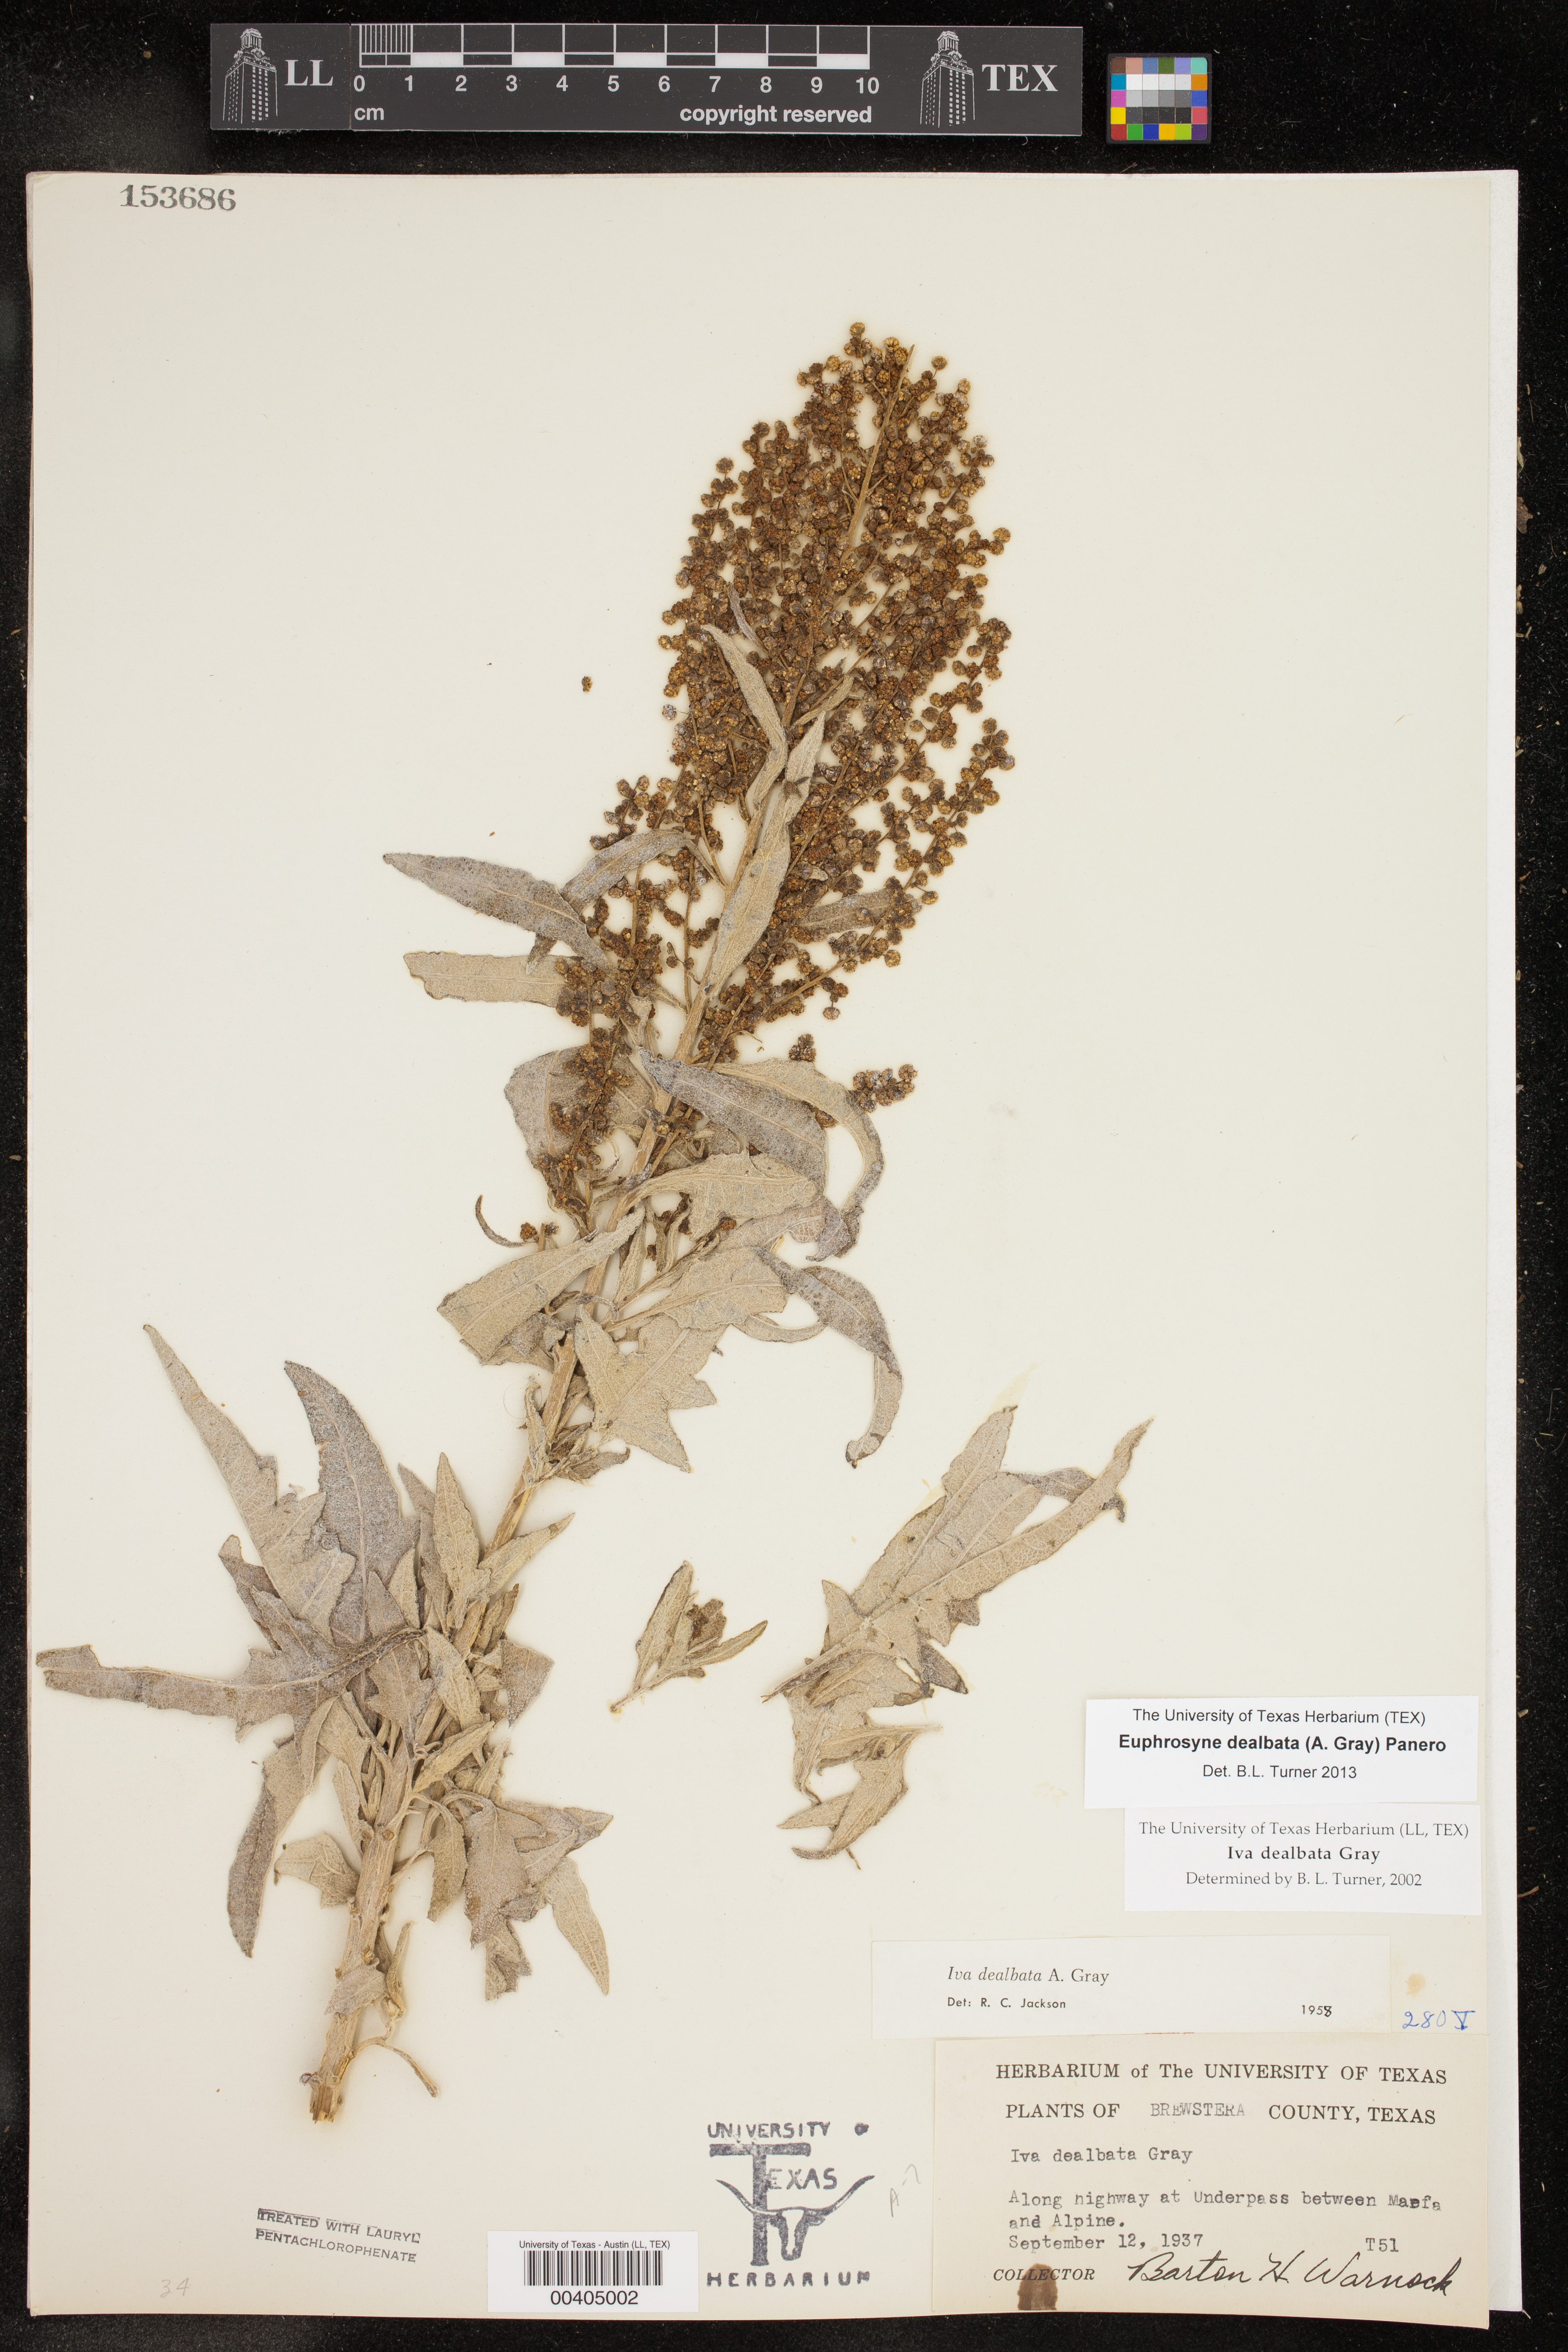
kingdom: Plantae
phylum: Tracheophyta
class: Magnoliopsida
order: Asterales
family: Asteraceae
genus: Euphrosyne
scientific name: Euphrosyne dealbata
